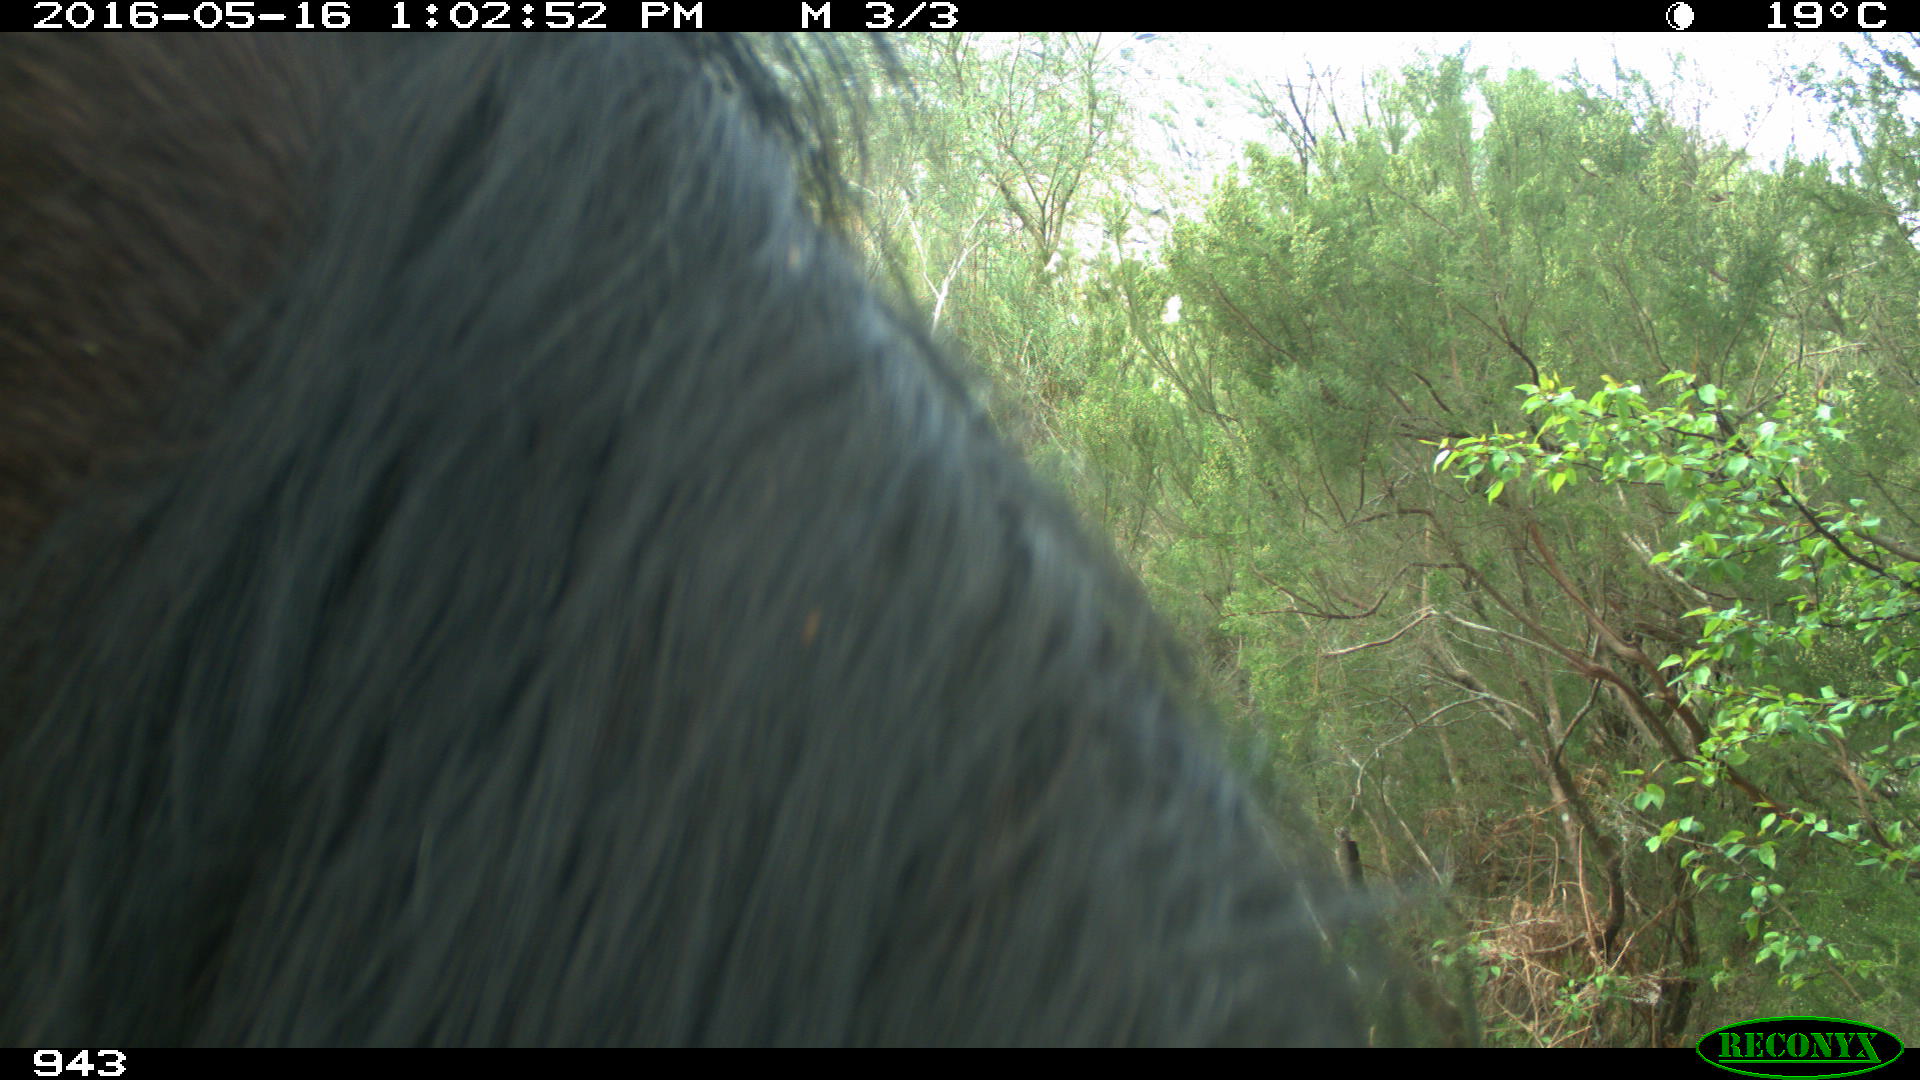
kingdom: Animalia
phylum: Chordata
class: Mammalia
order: Perissodactyla
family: Equidae
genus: Equus
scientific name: Equus caballus
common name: Horse
